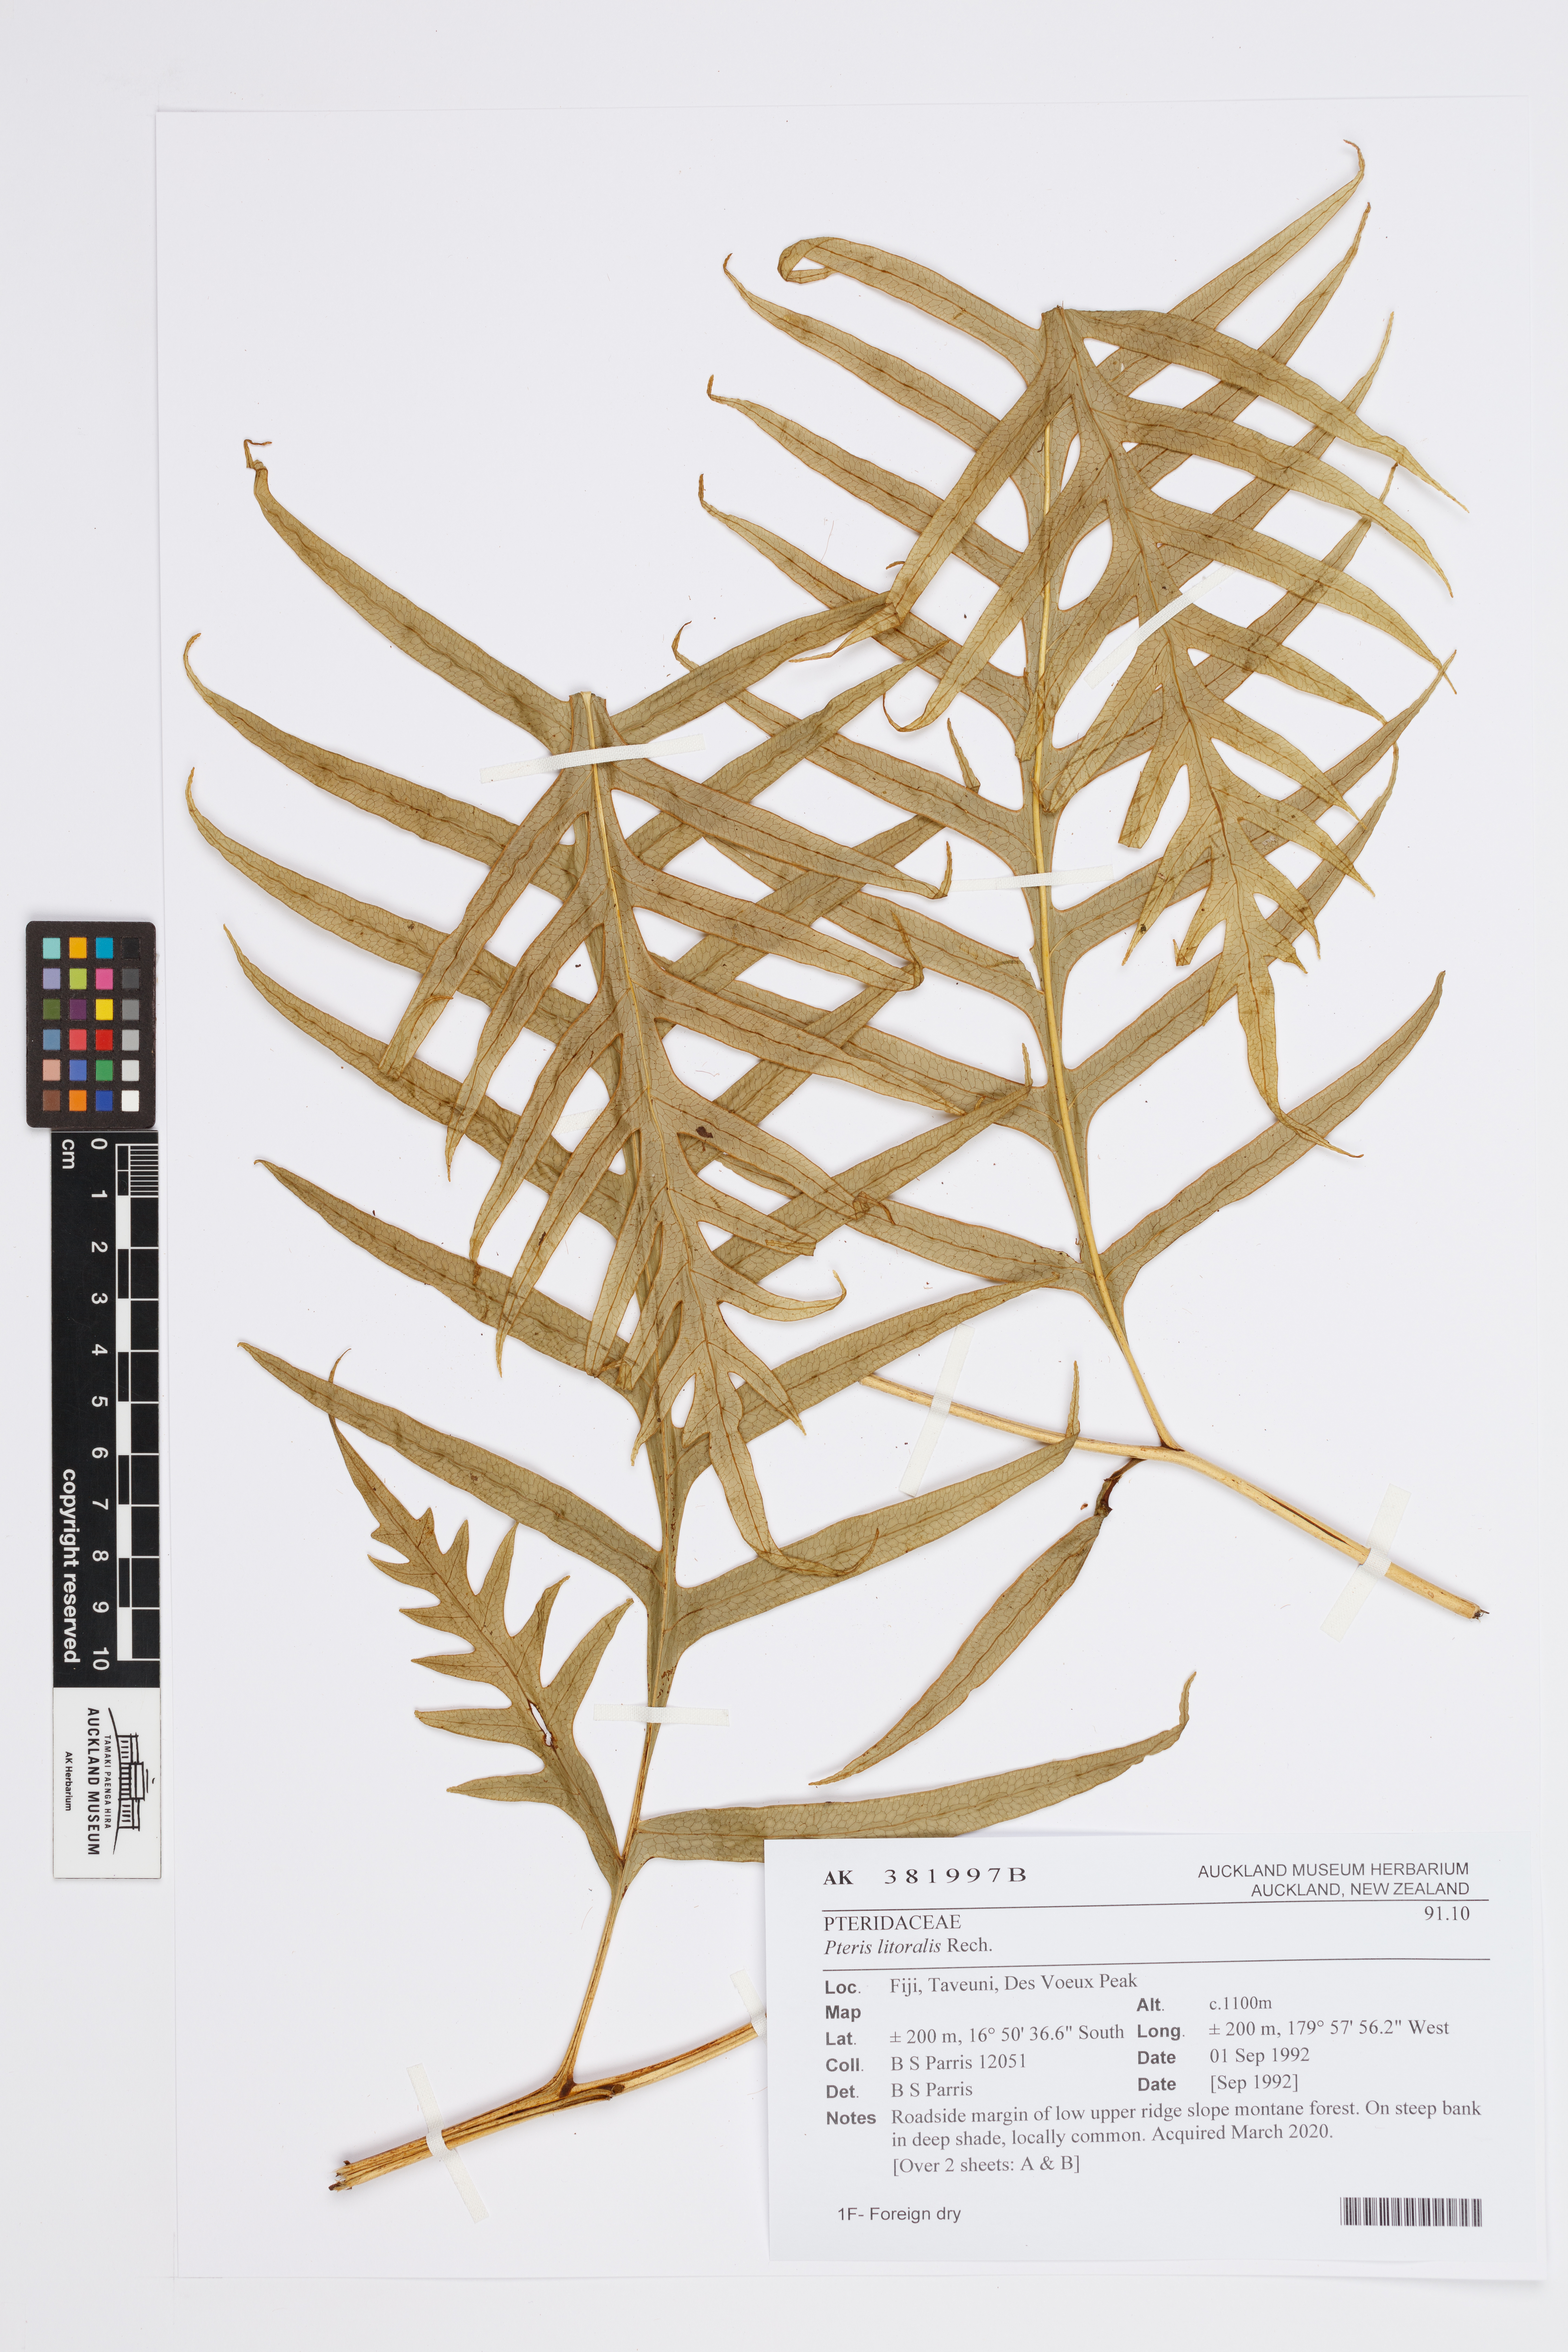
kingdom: Plantae
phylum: Tracheophyta
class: Polypodiopsida
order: Polypodiales
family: Pteridaceae
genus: Pteris
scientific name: Pteris litoralis
